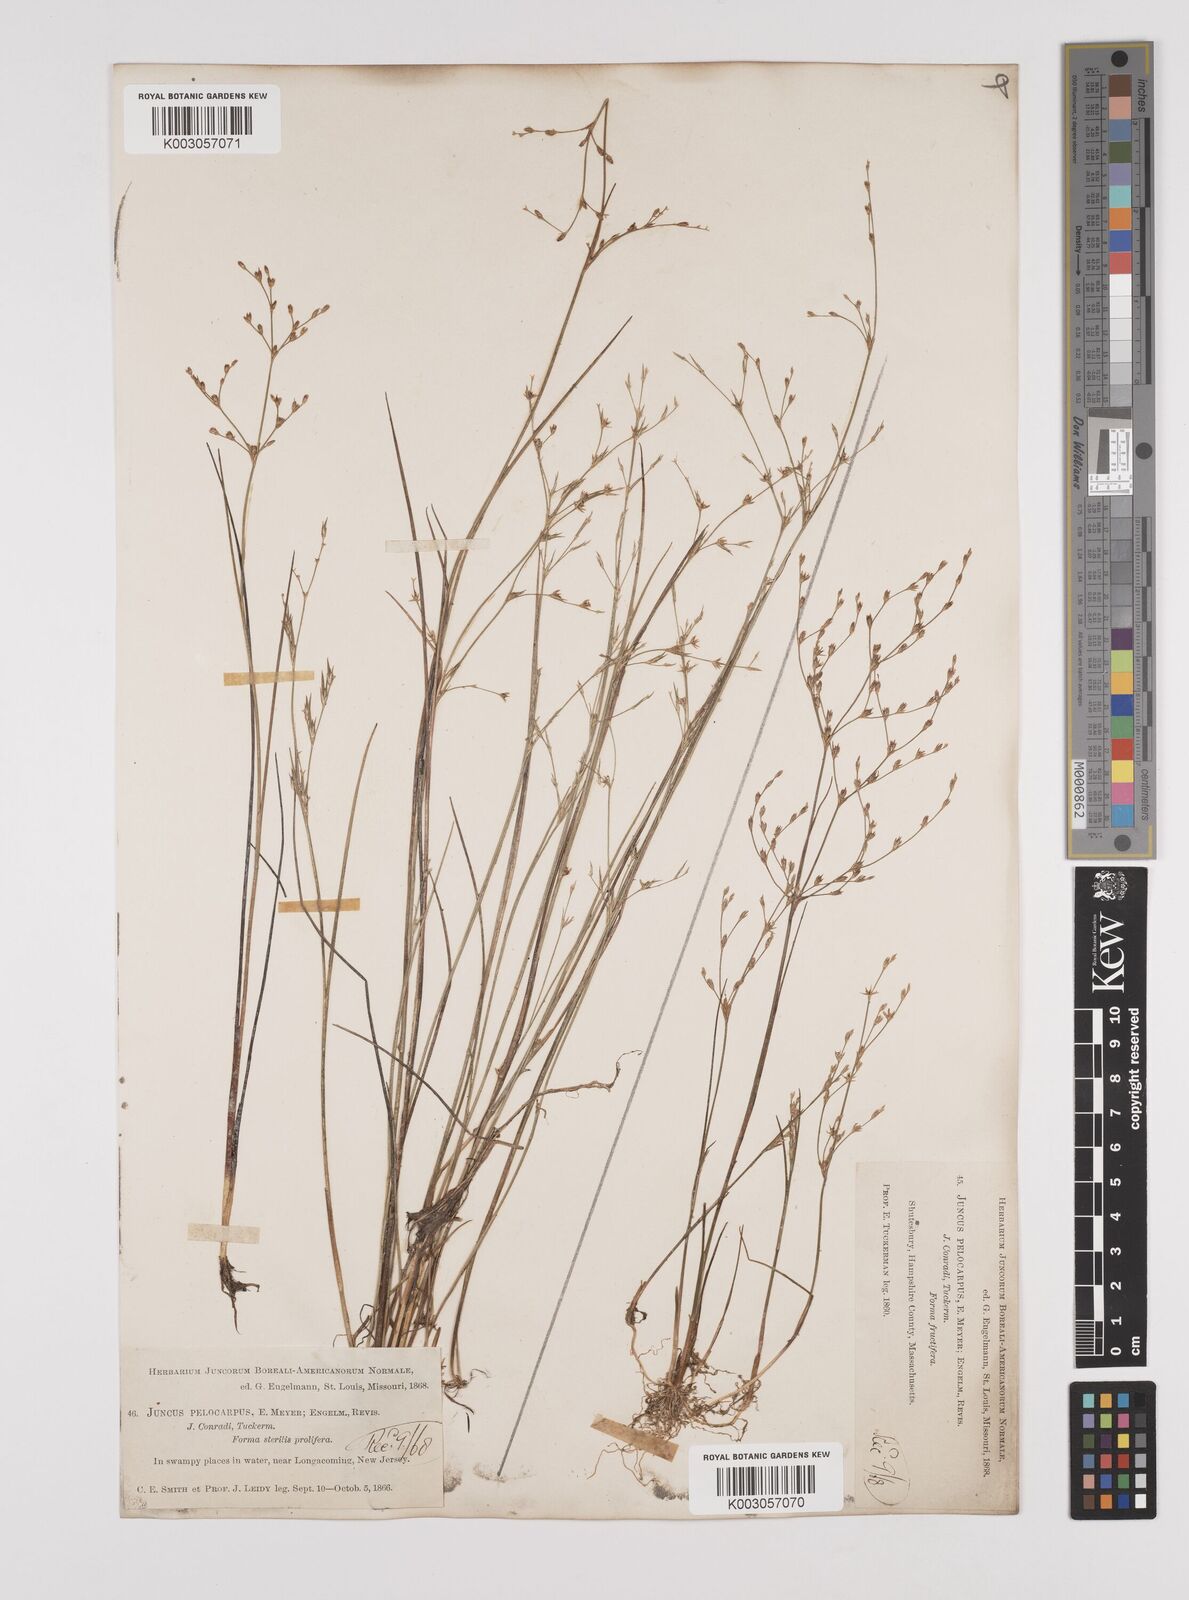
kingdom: Plantae
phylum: Tracheophyta
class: Liliopsida
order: Poales
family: Juncaceae
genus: Juncus
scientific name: Juncus pelocarpus
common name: Brown-fruited rush
